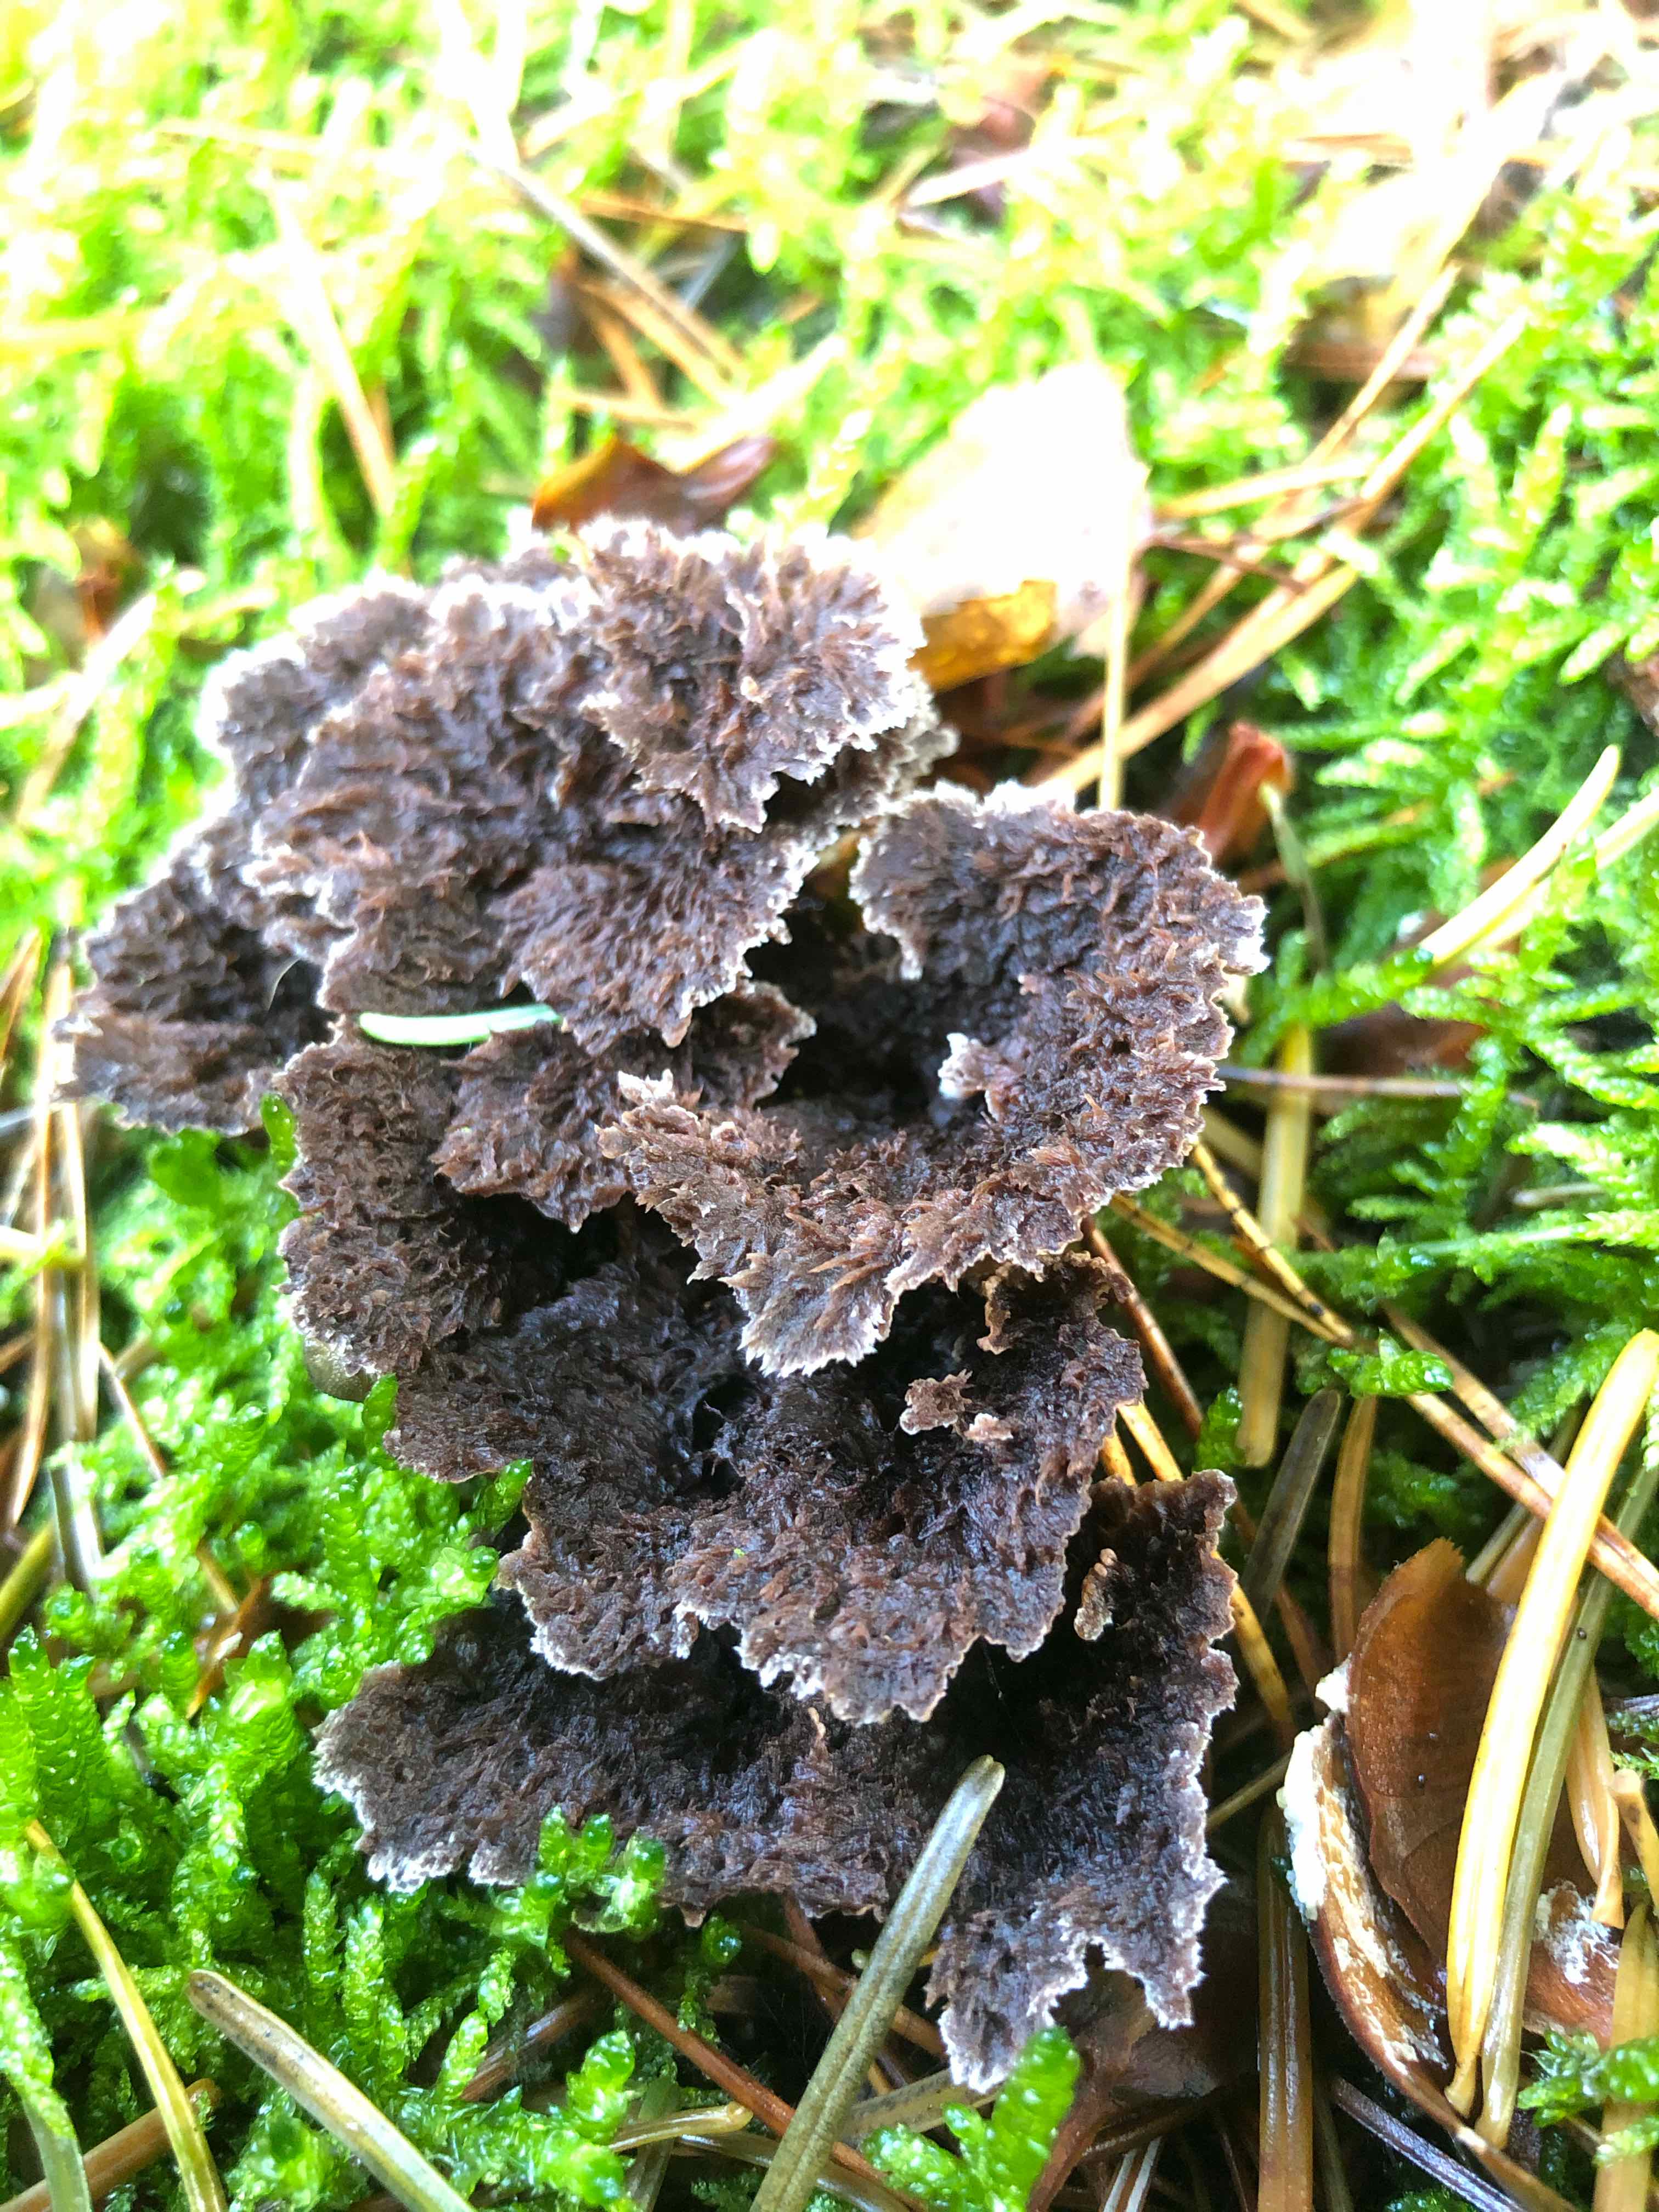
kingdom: Fungi
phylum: Basidiomycota
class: Agaricomycetes
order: Thelephorales
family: Thelephoraceae
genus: Thelephora
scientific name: Thelephora terrestris
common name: fliget frynsesvamp
